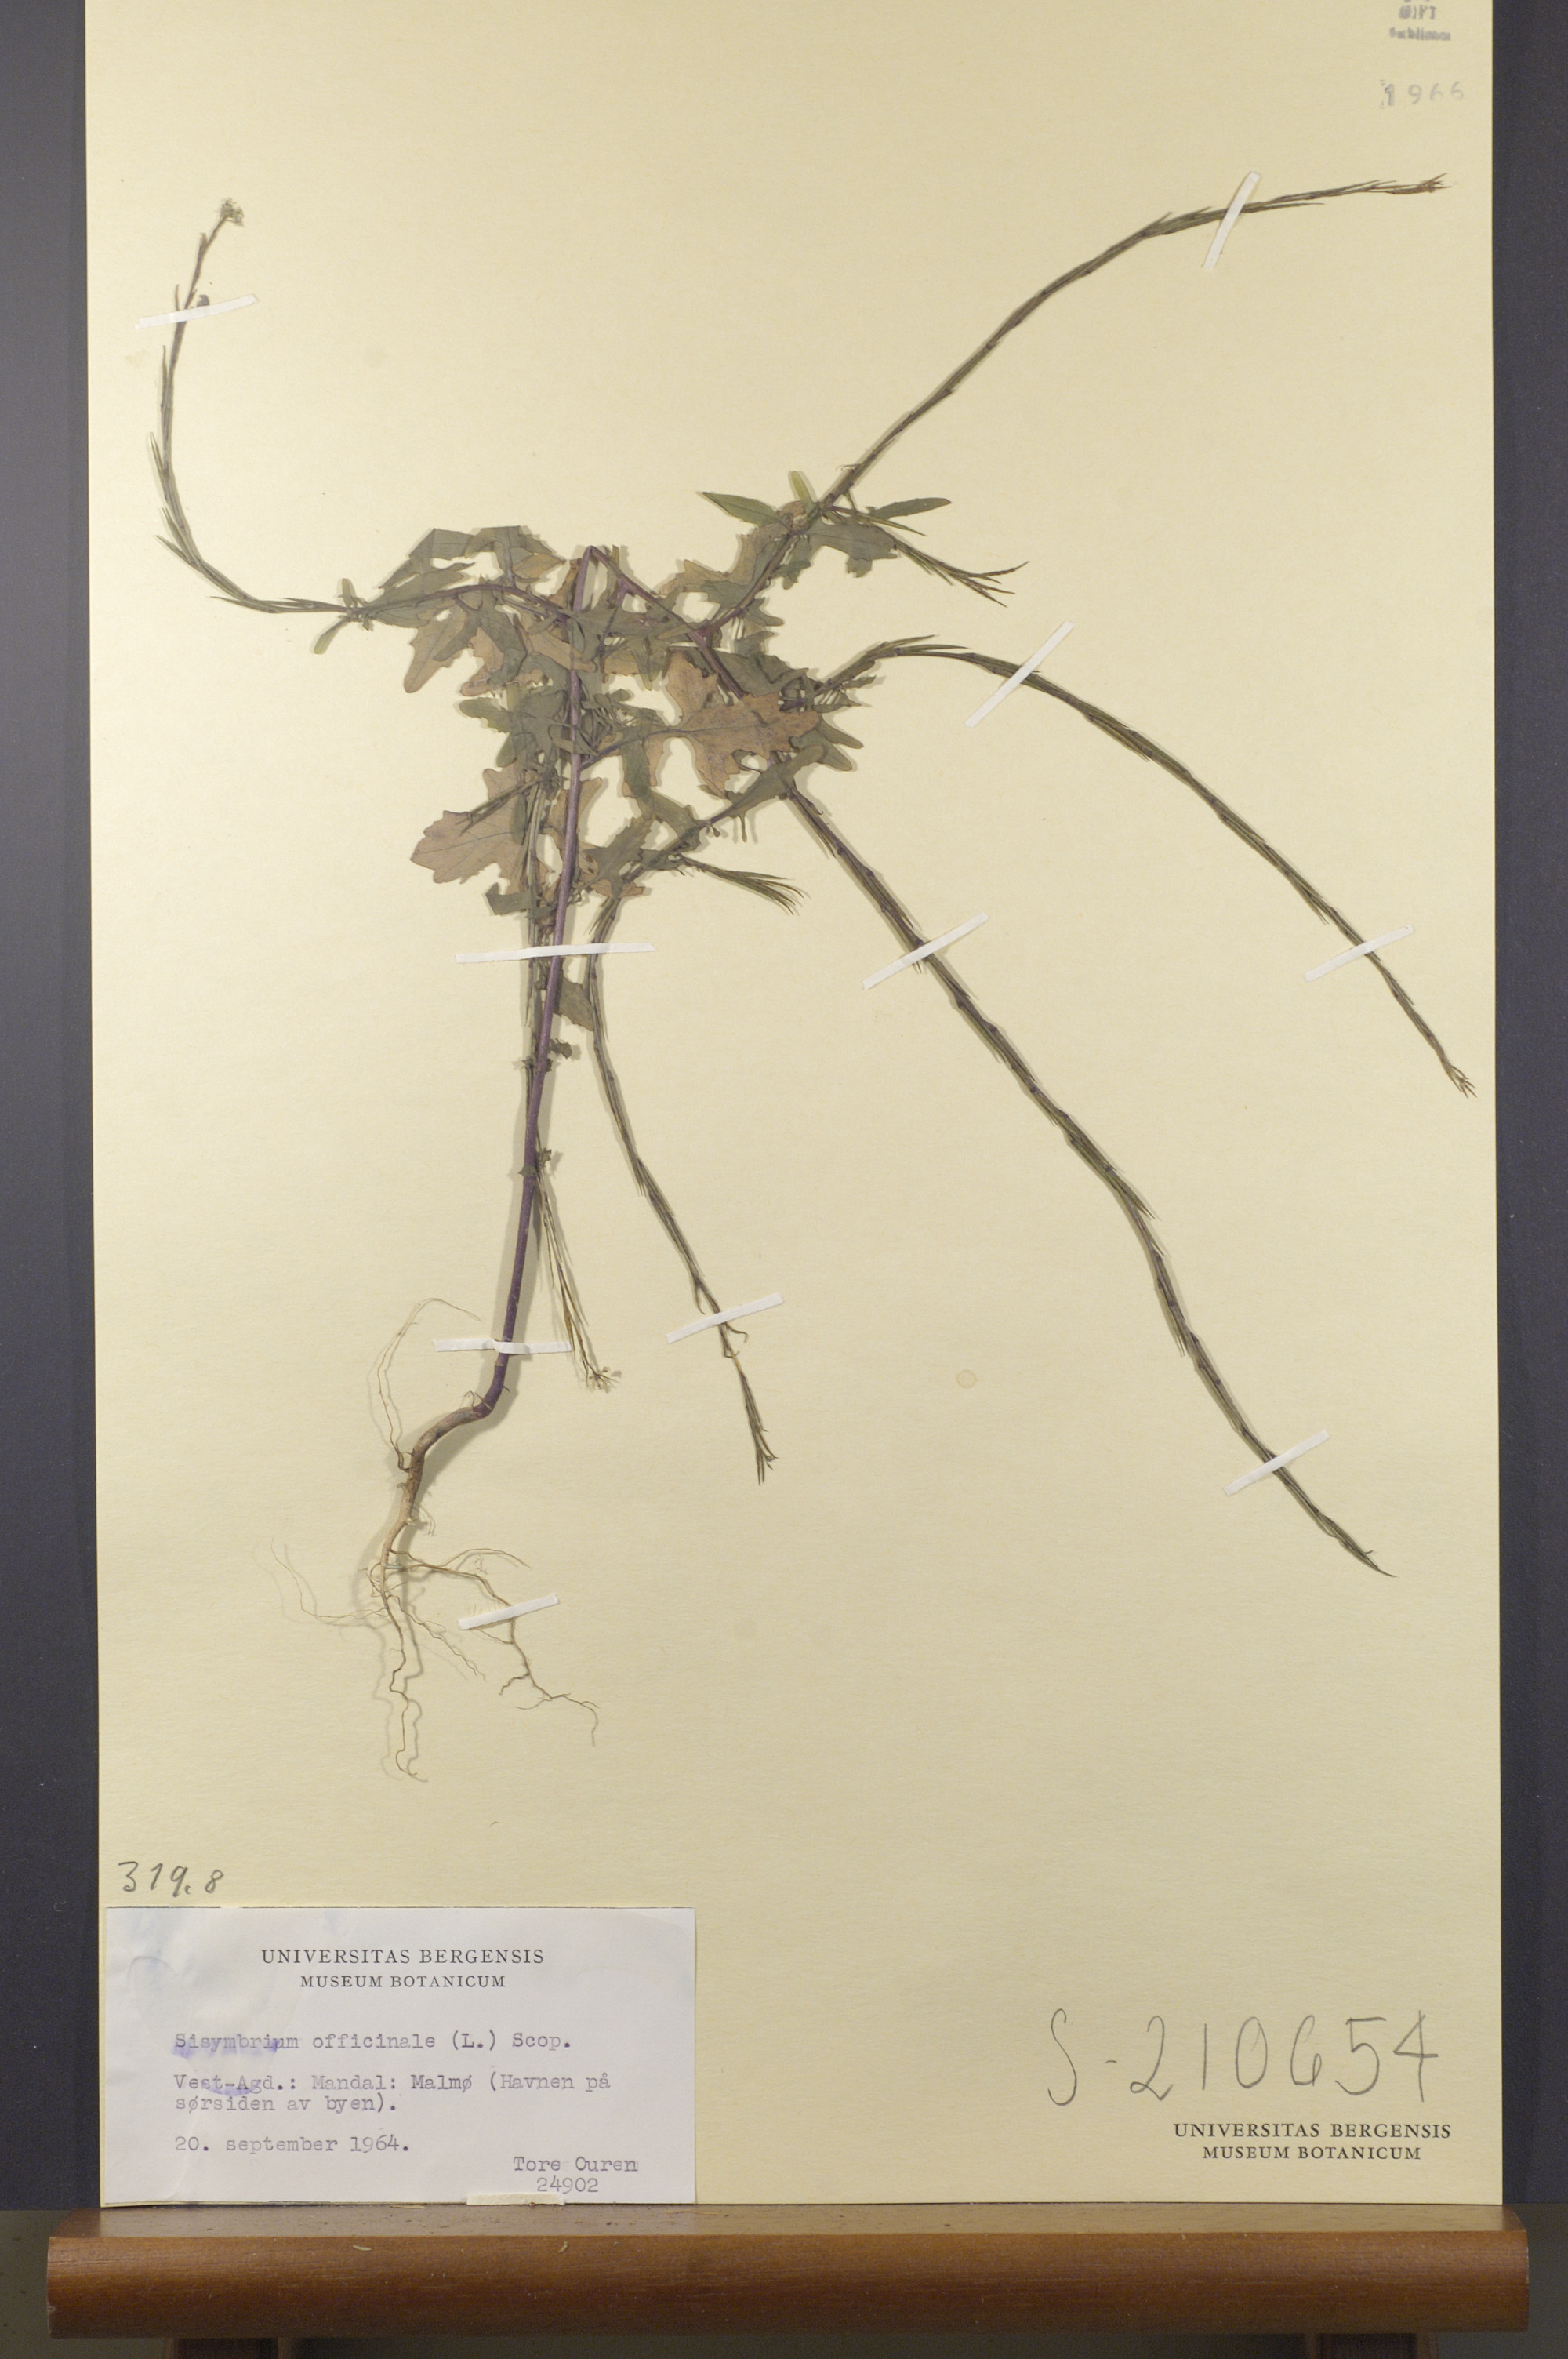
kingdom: Plantae
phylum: Tracheophyta
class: Magnoliopsida
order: Brassicales
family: Brassicaceae
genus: Sisymbrium
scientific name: Sisymbrium officinale
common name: Hedge mustard
